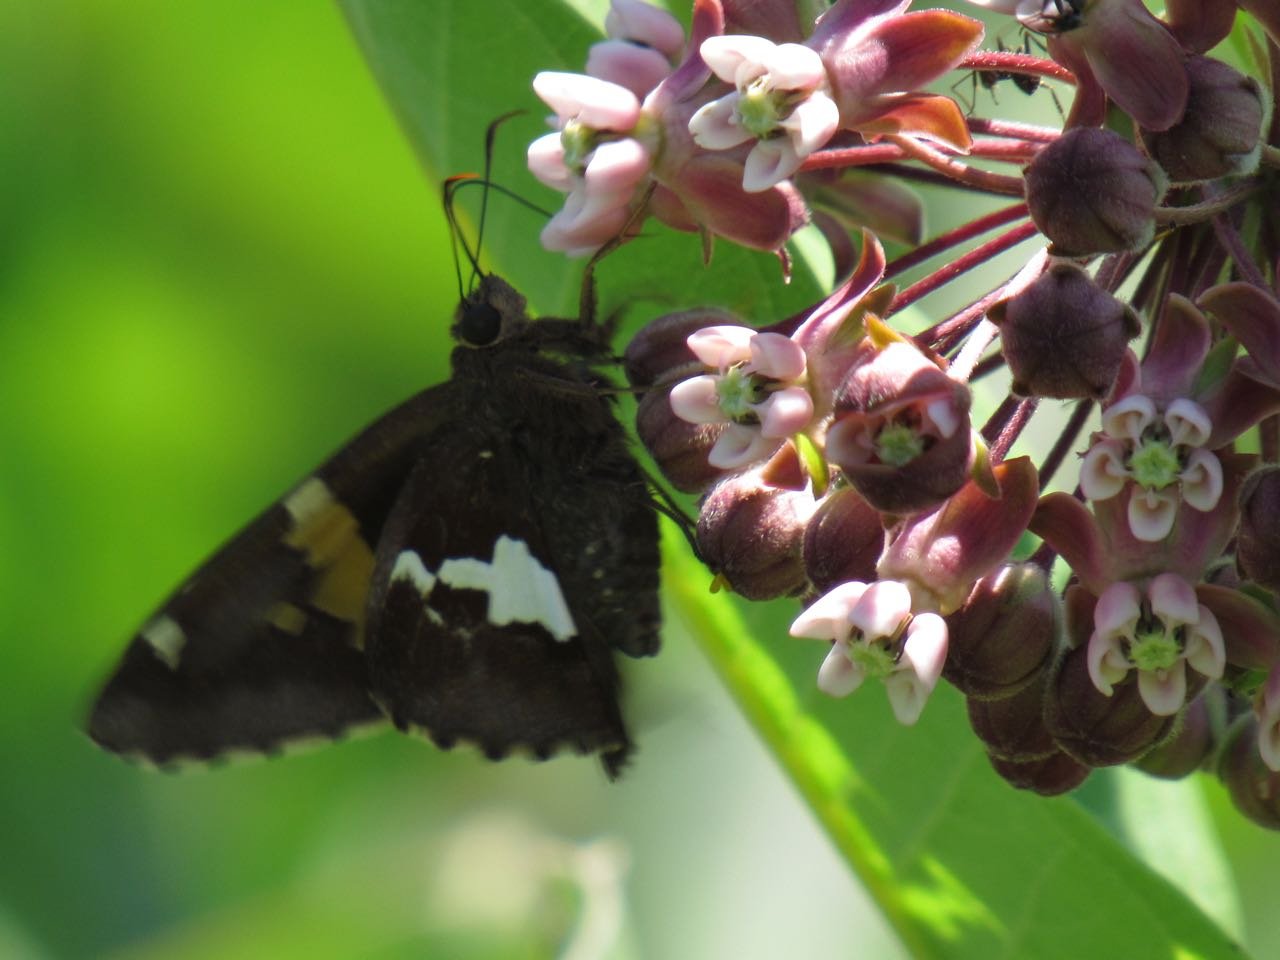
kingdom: Animalia
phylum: Arthropoda
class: Insecta
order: Lepidoptera
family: Hesperiidae
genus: Epargyreus
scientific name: Epargyreus clarus
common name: Silver-spotted Skipper
